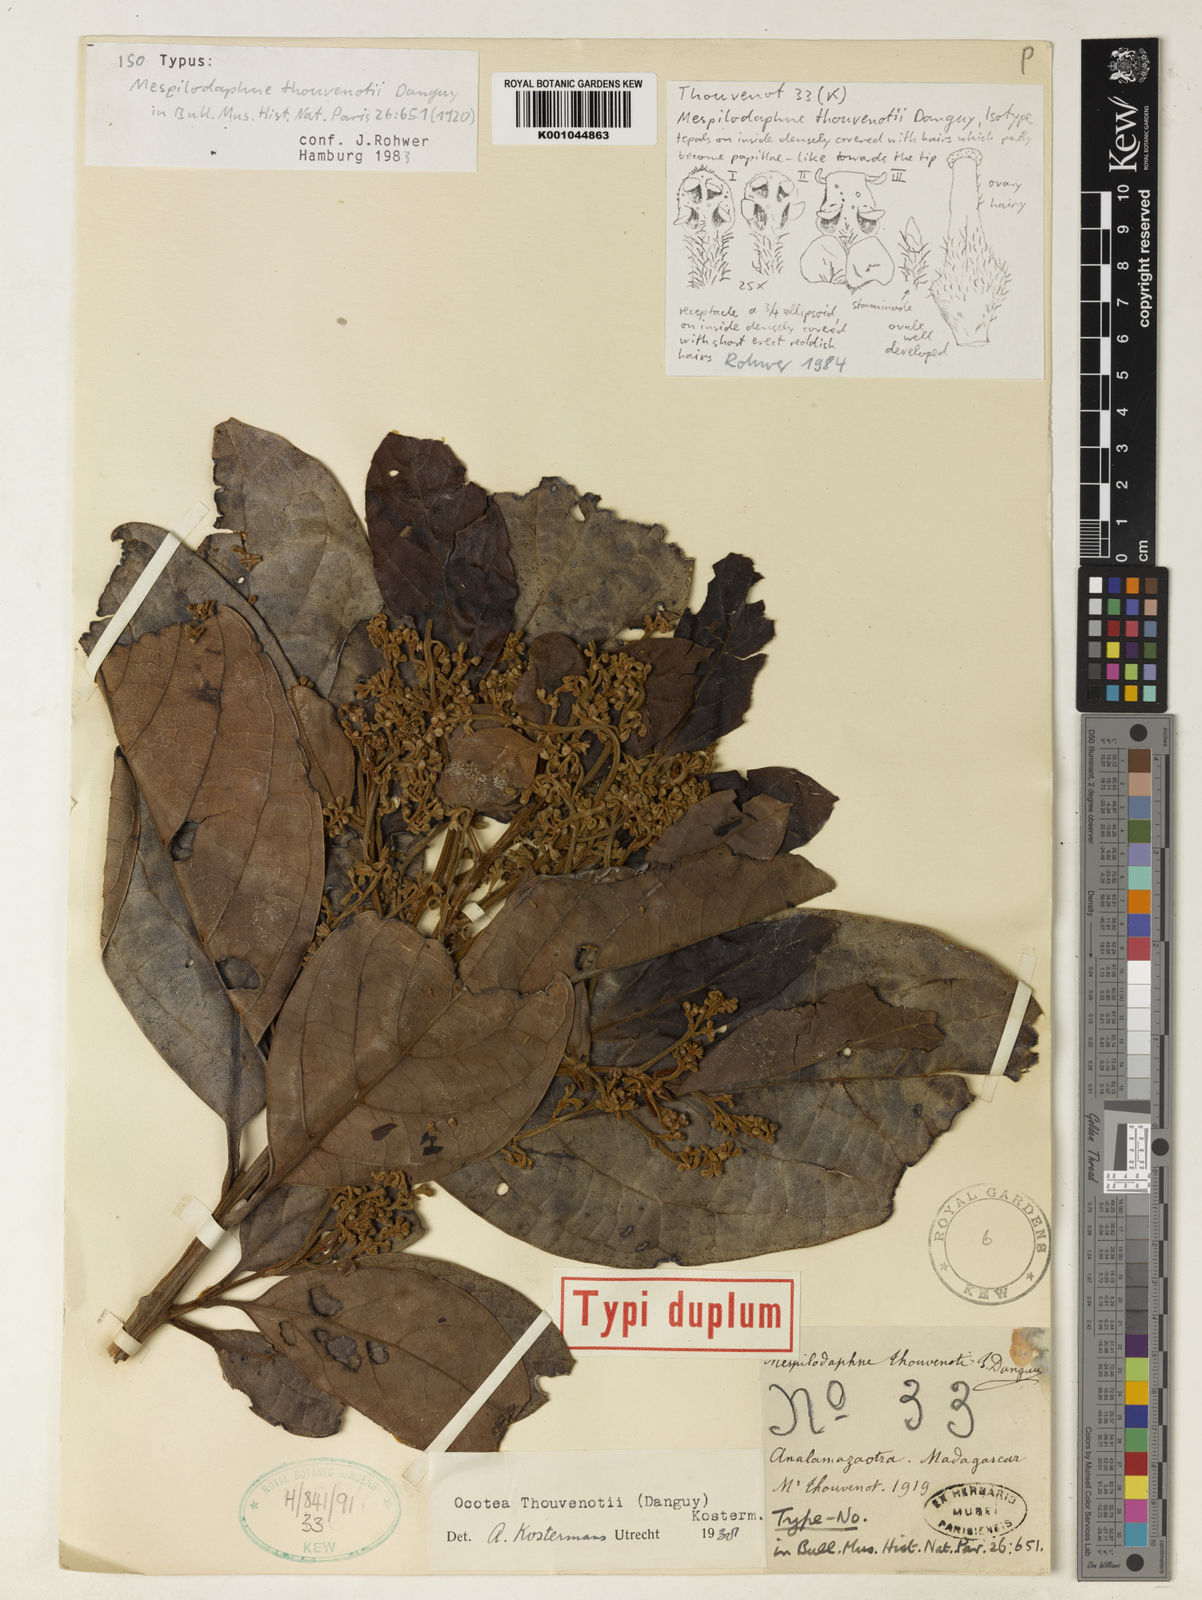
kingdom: Plantae
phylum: Tracheophyta
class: Magnoliopsida
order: Laurales
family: Lauraceae
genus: Mespilodaphne
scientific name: Mespilodaphne thouvenotii
